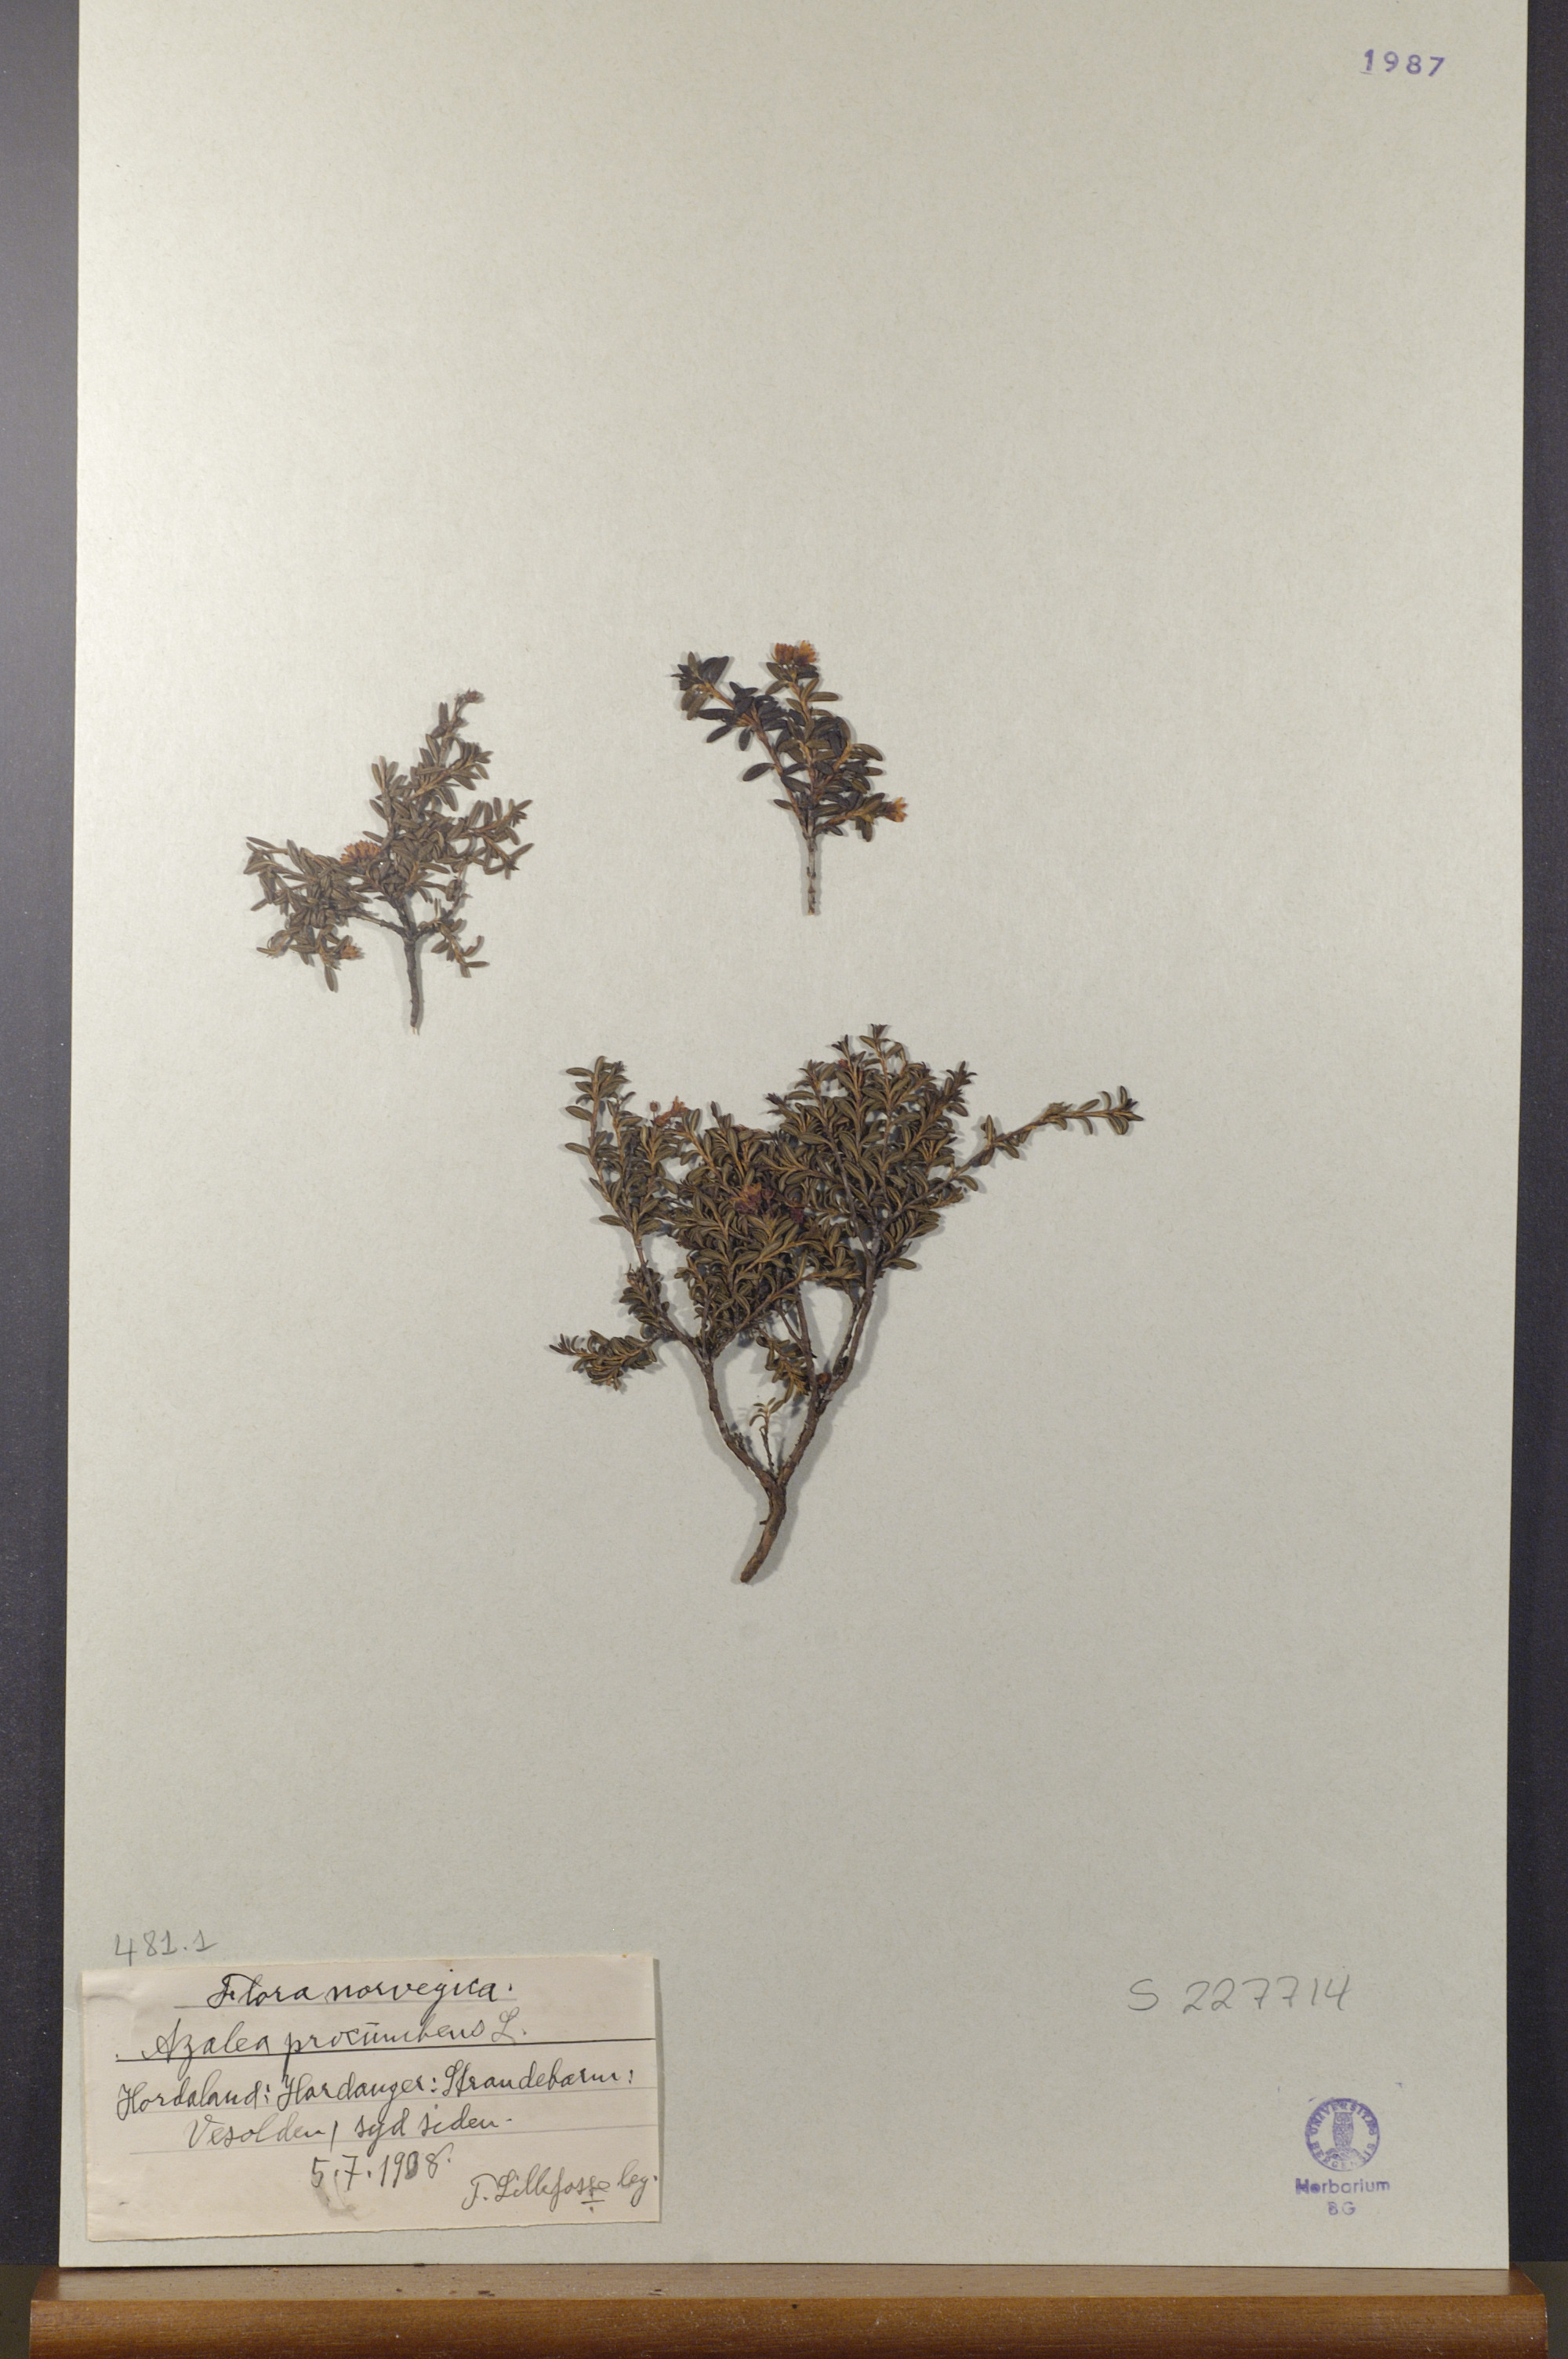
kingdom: Plantae
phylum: Tracheophyta
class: Magnoliopsida
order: Ericales
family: Ericaceae
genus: Kalmia
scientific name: Kalmia procumbens
